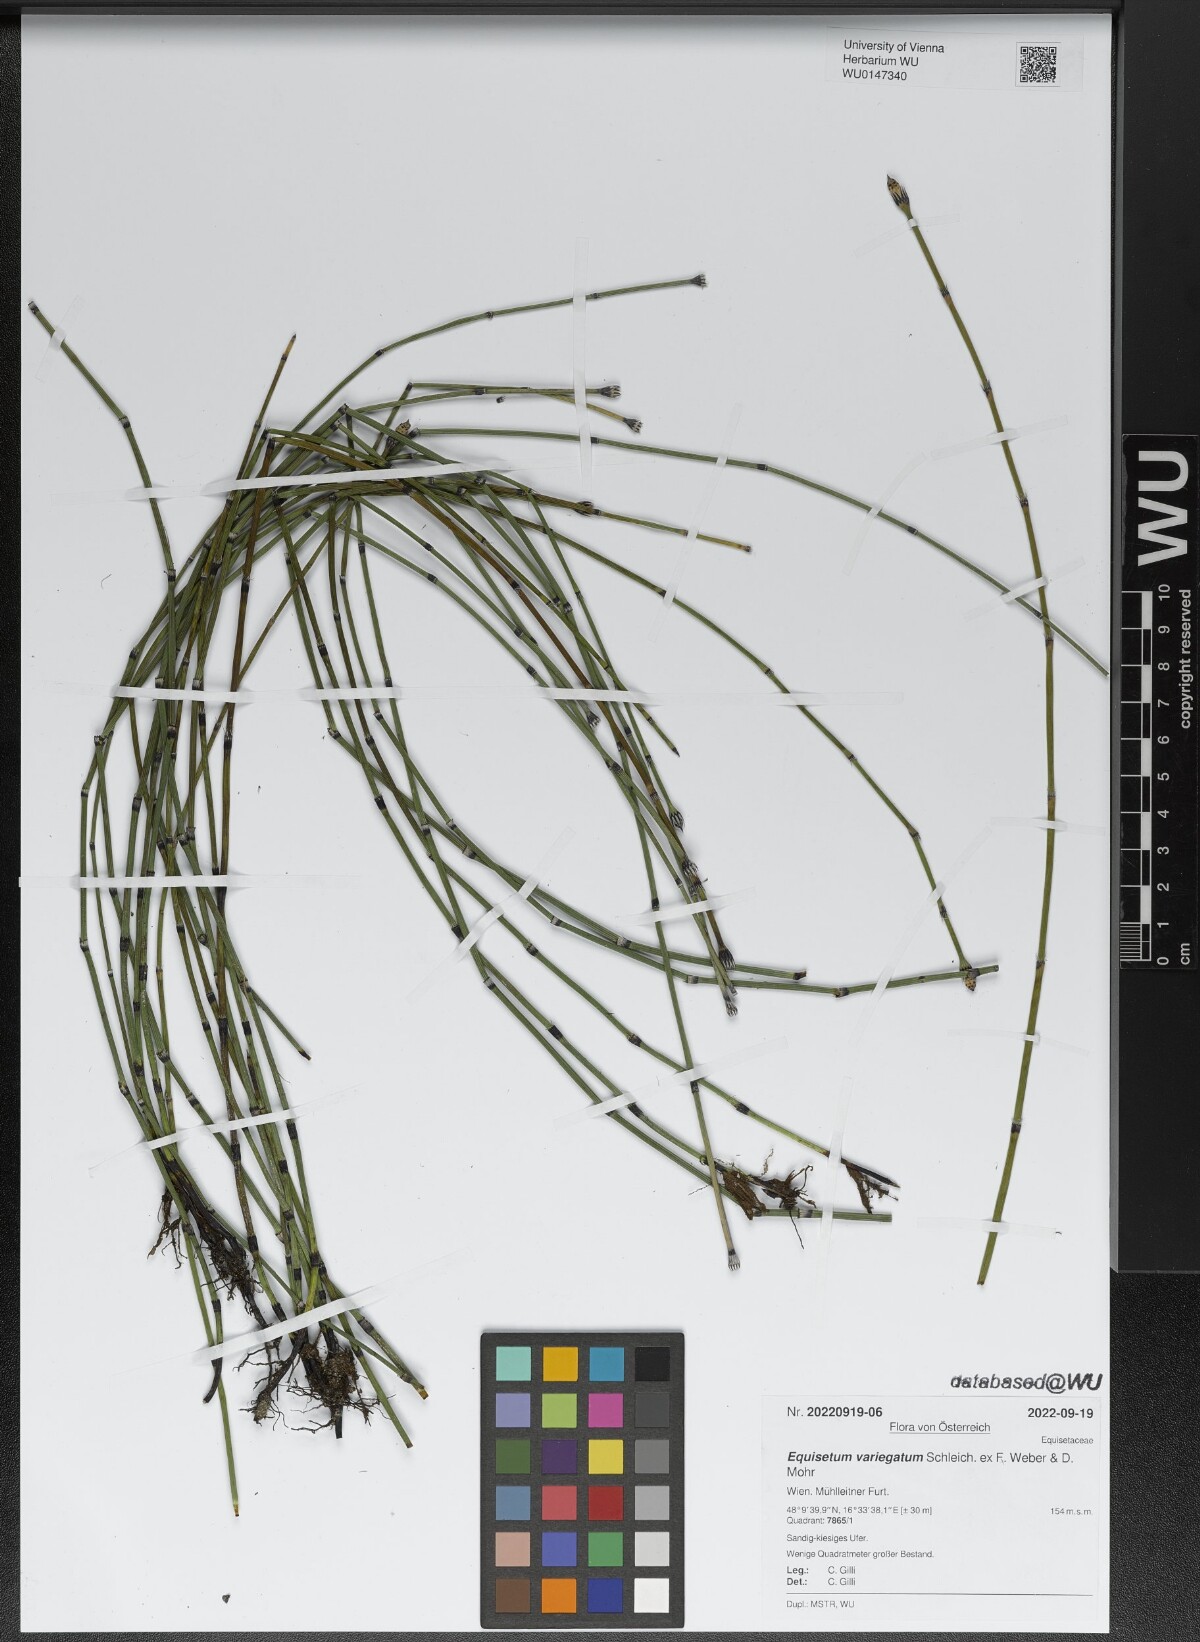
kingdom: Plantae
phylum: Tracheophyta
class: Polypodiopsida
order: Equisetales
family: Equisetaceae
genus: Equisetum
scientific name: Equisetum variegatum
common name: Variegated horsetail
